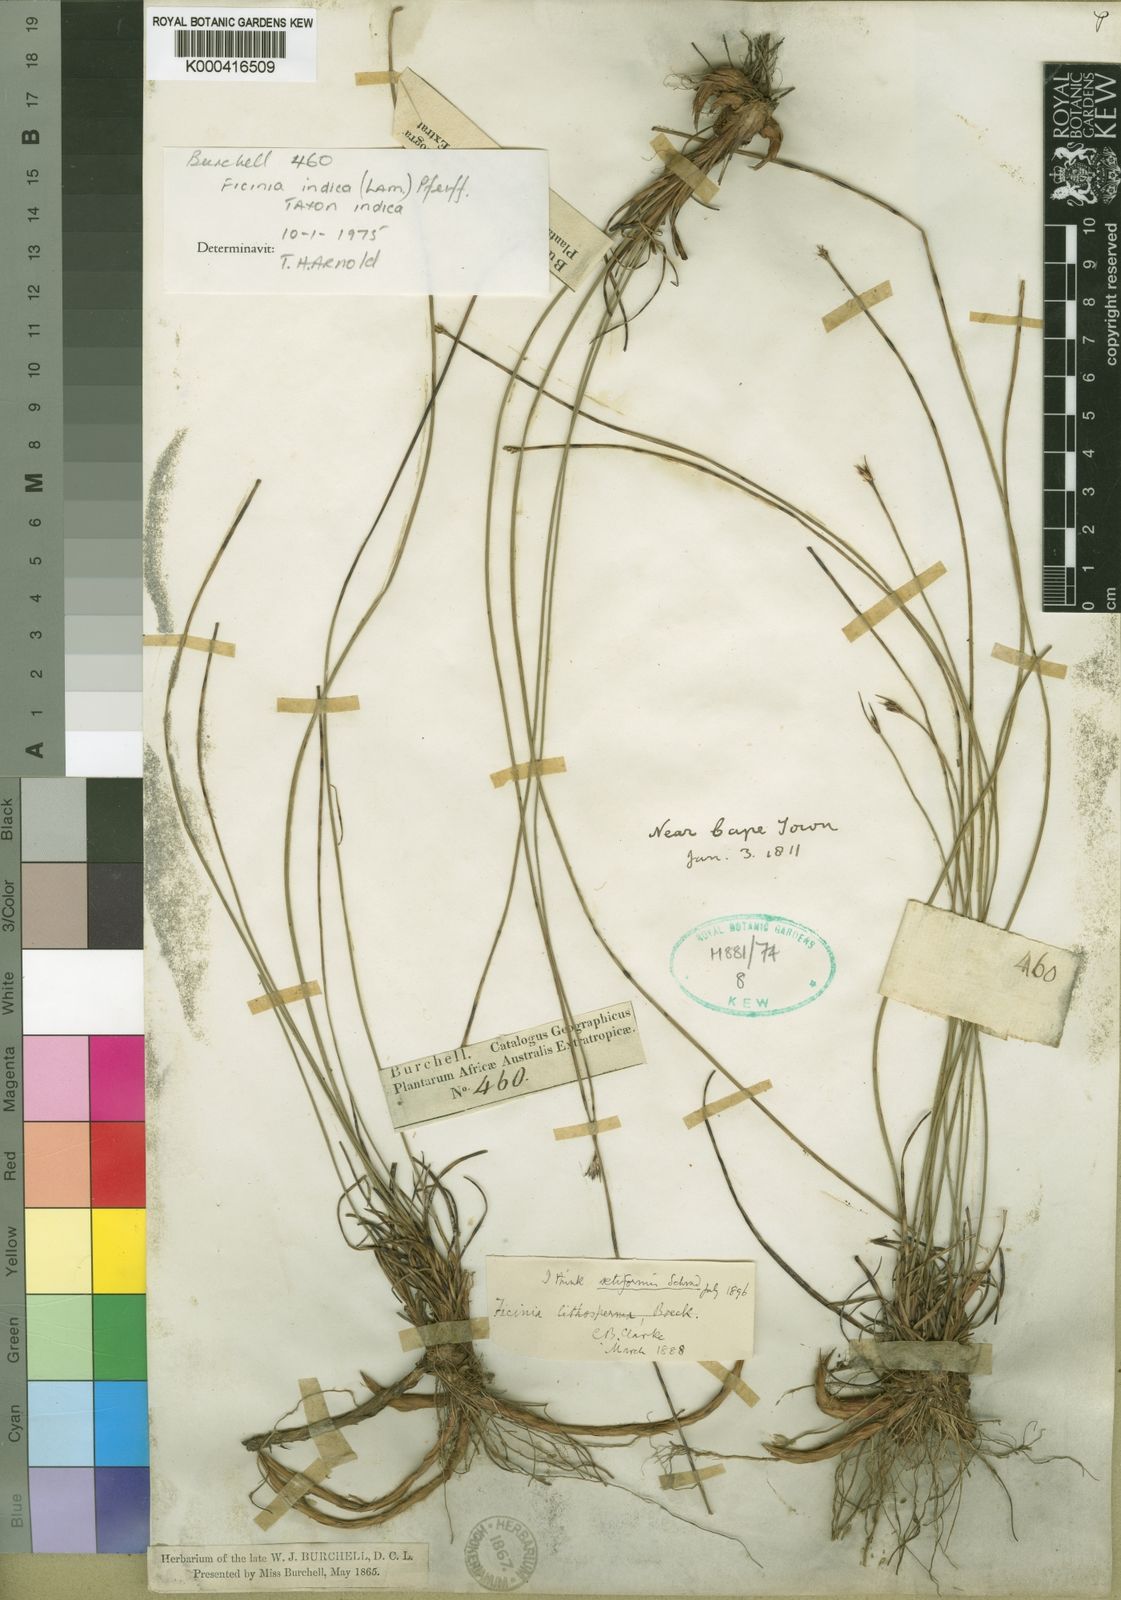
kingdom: Plantae
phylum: Tracheophyta
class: Liliopsida
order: Poales
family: Cyperaceae
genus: Ficinia
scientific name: Ficinia indica
